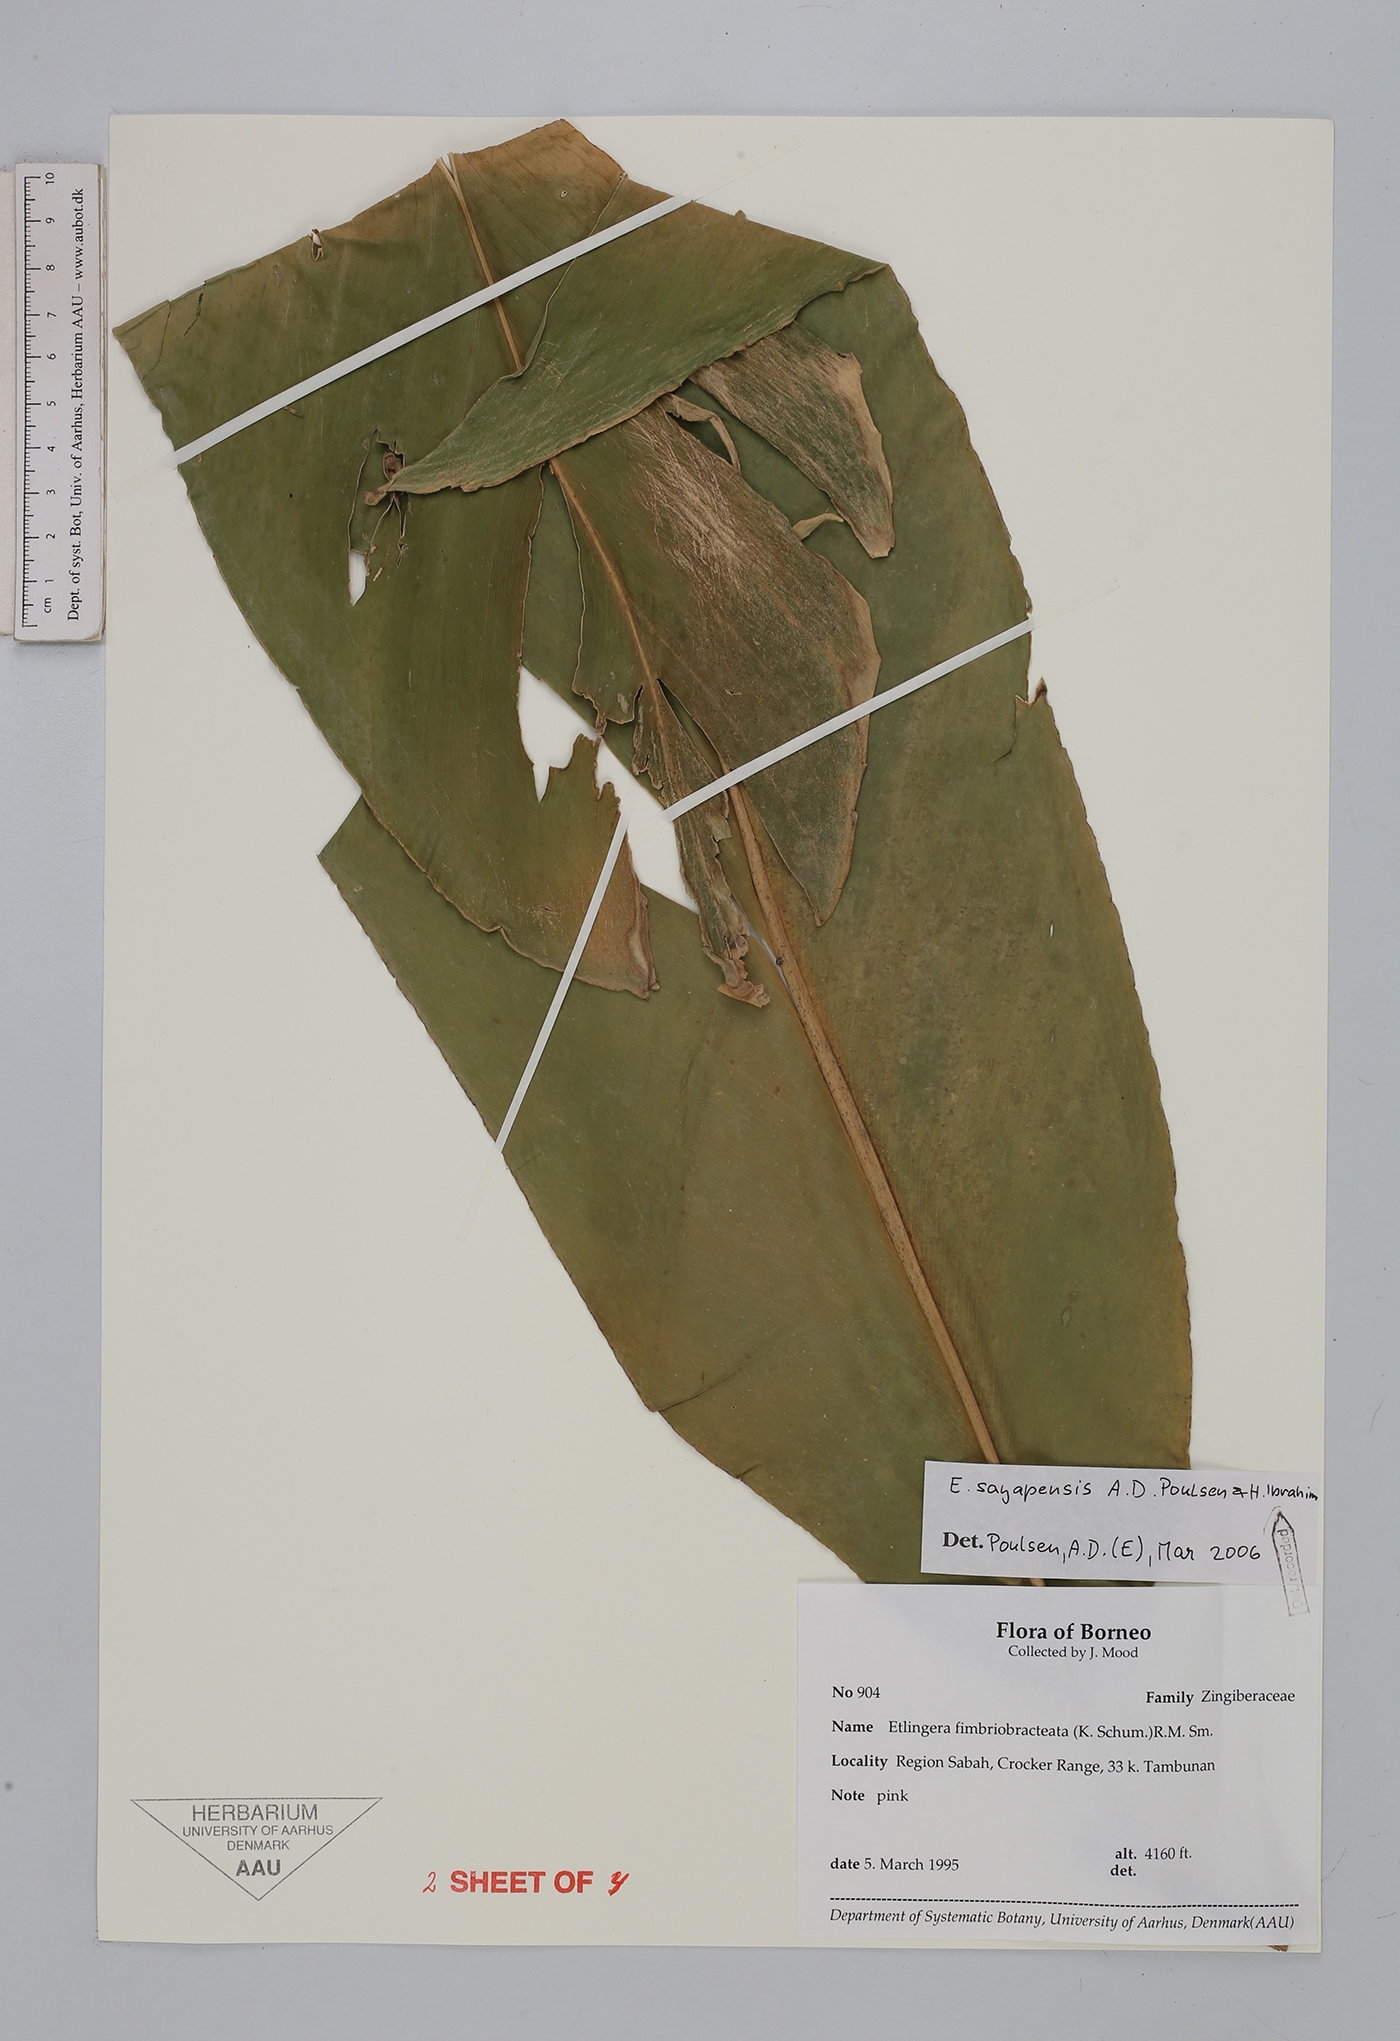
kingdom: Plantae
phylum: Tracheophyta
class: Liliopsida
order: Zingiberales
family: Zingiberaceae
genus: Etlingera
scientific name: Etlingera sayapensis
